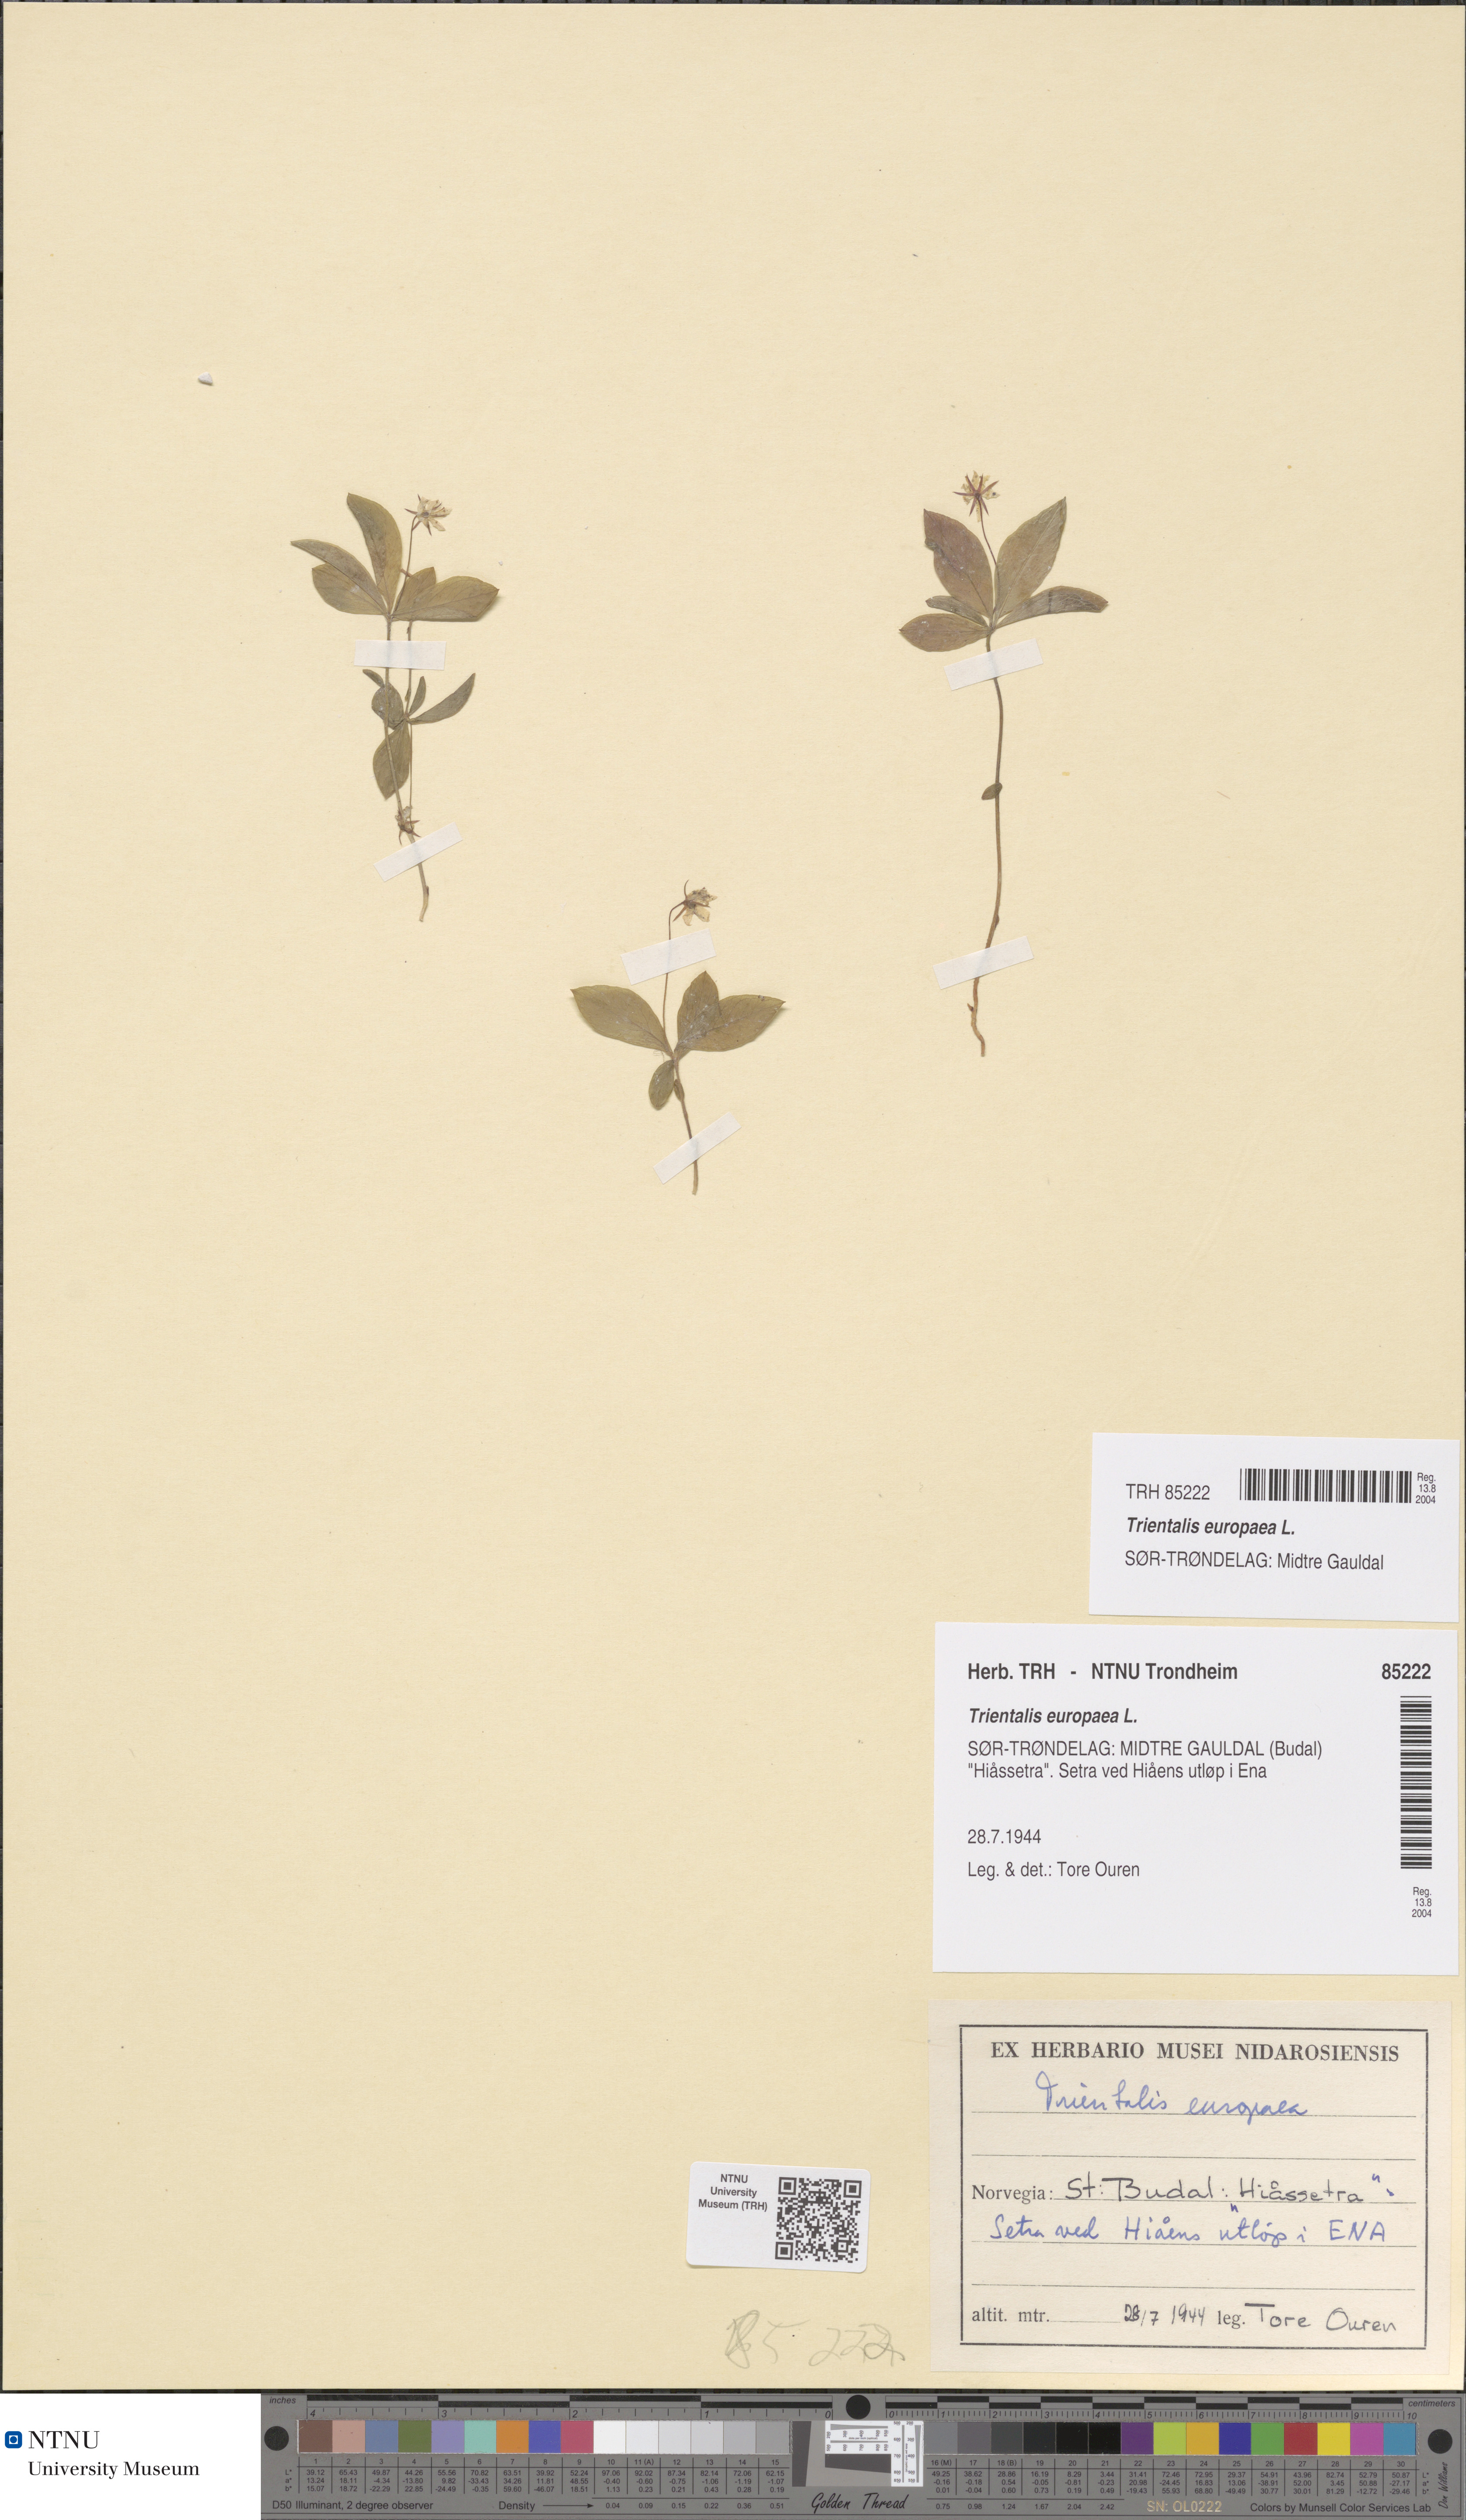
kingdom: Plantae
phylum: Tracheophyta
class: Magnoliopsida
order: Ericales
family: Primulaceae
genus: Lysimachia
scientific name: Lysimachia europaea
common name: Arctic starflower
